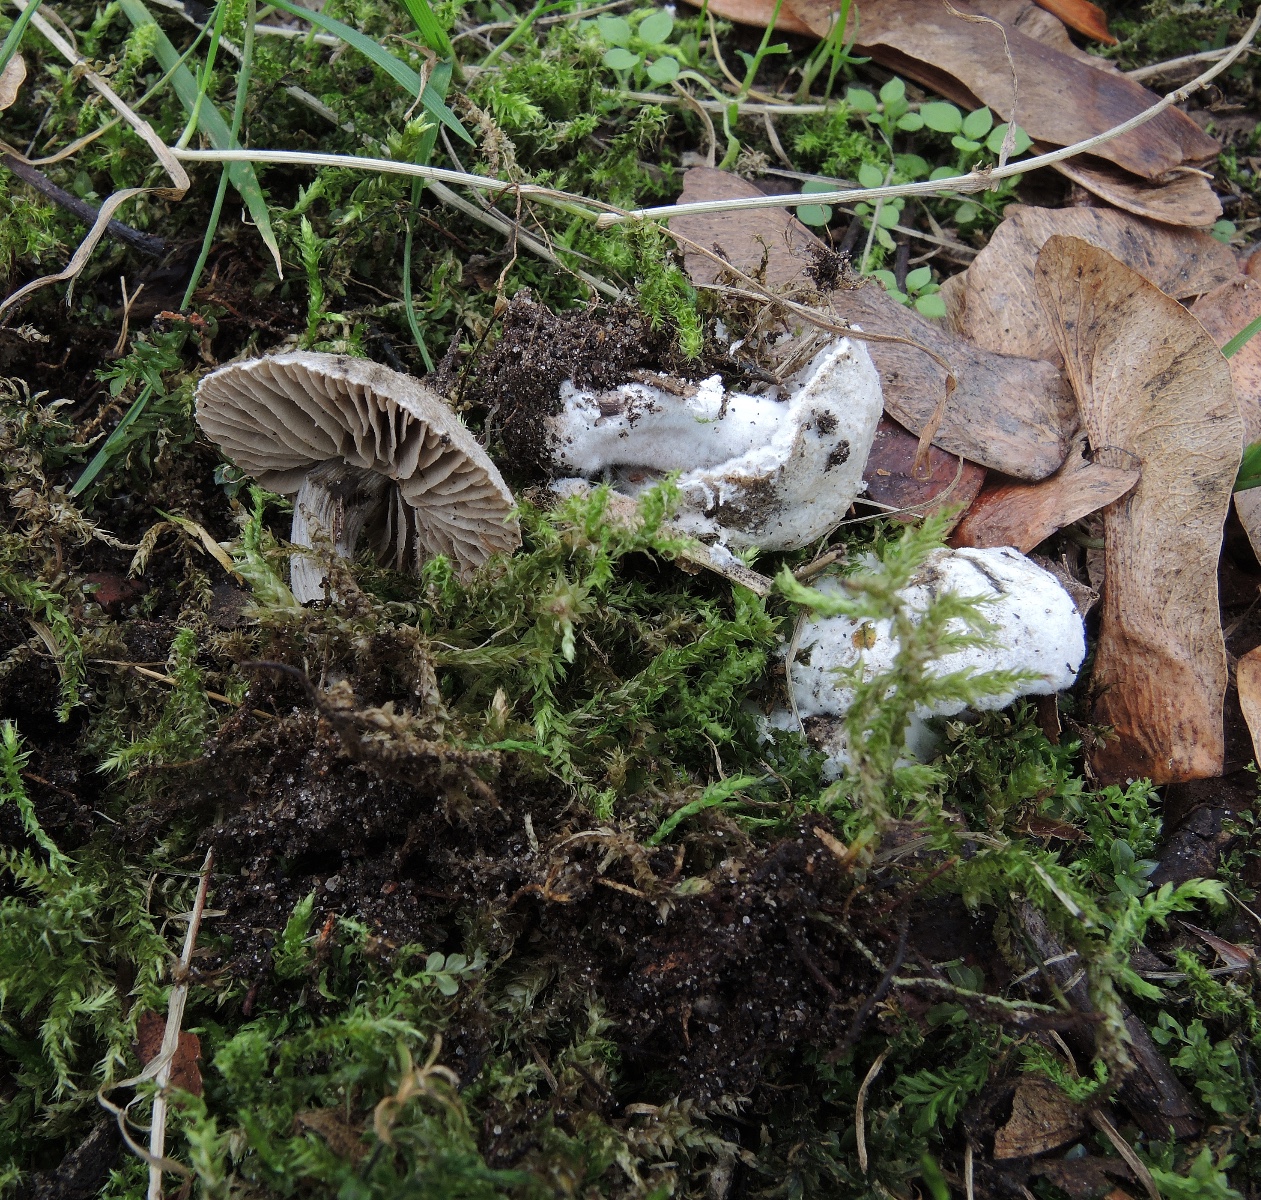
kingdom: Fungi
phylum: Ascomycota
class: Sordariomycetes
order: Hypocreales
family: Hypocreaceae
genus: Mycogone
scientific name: Mycogone rosea
